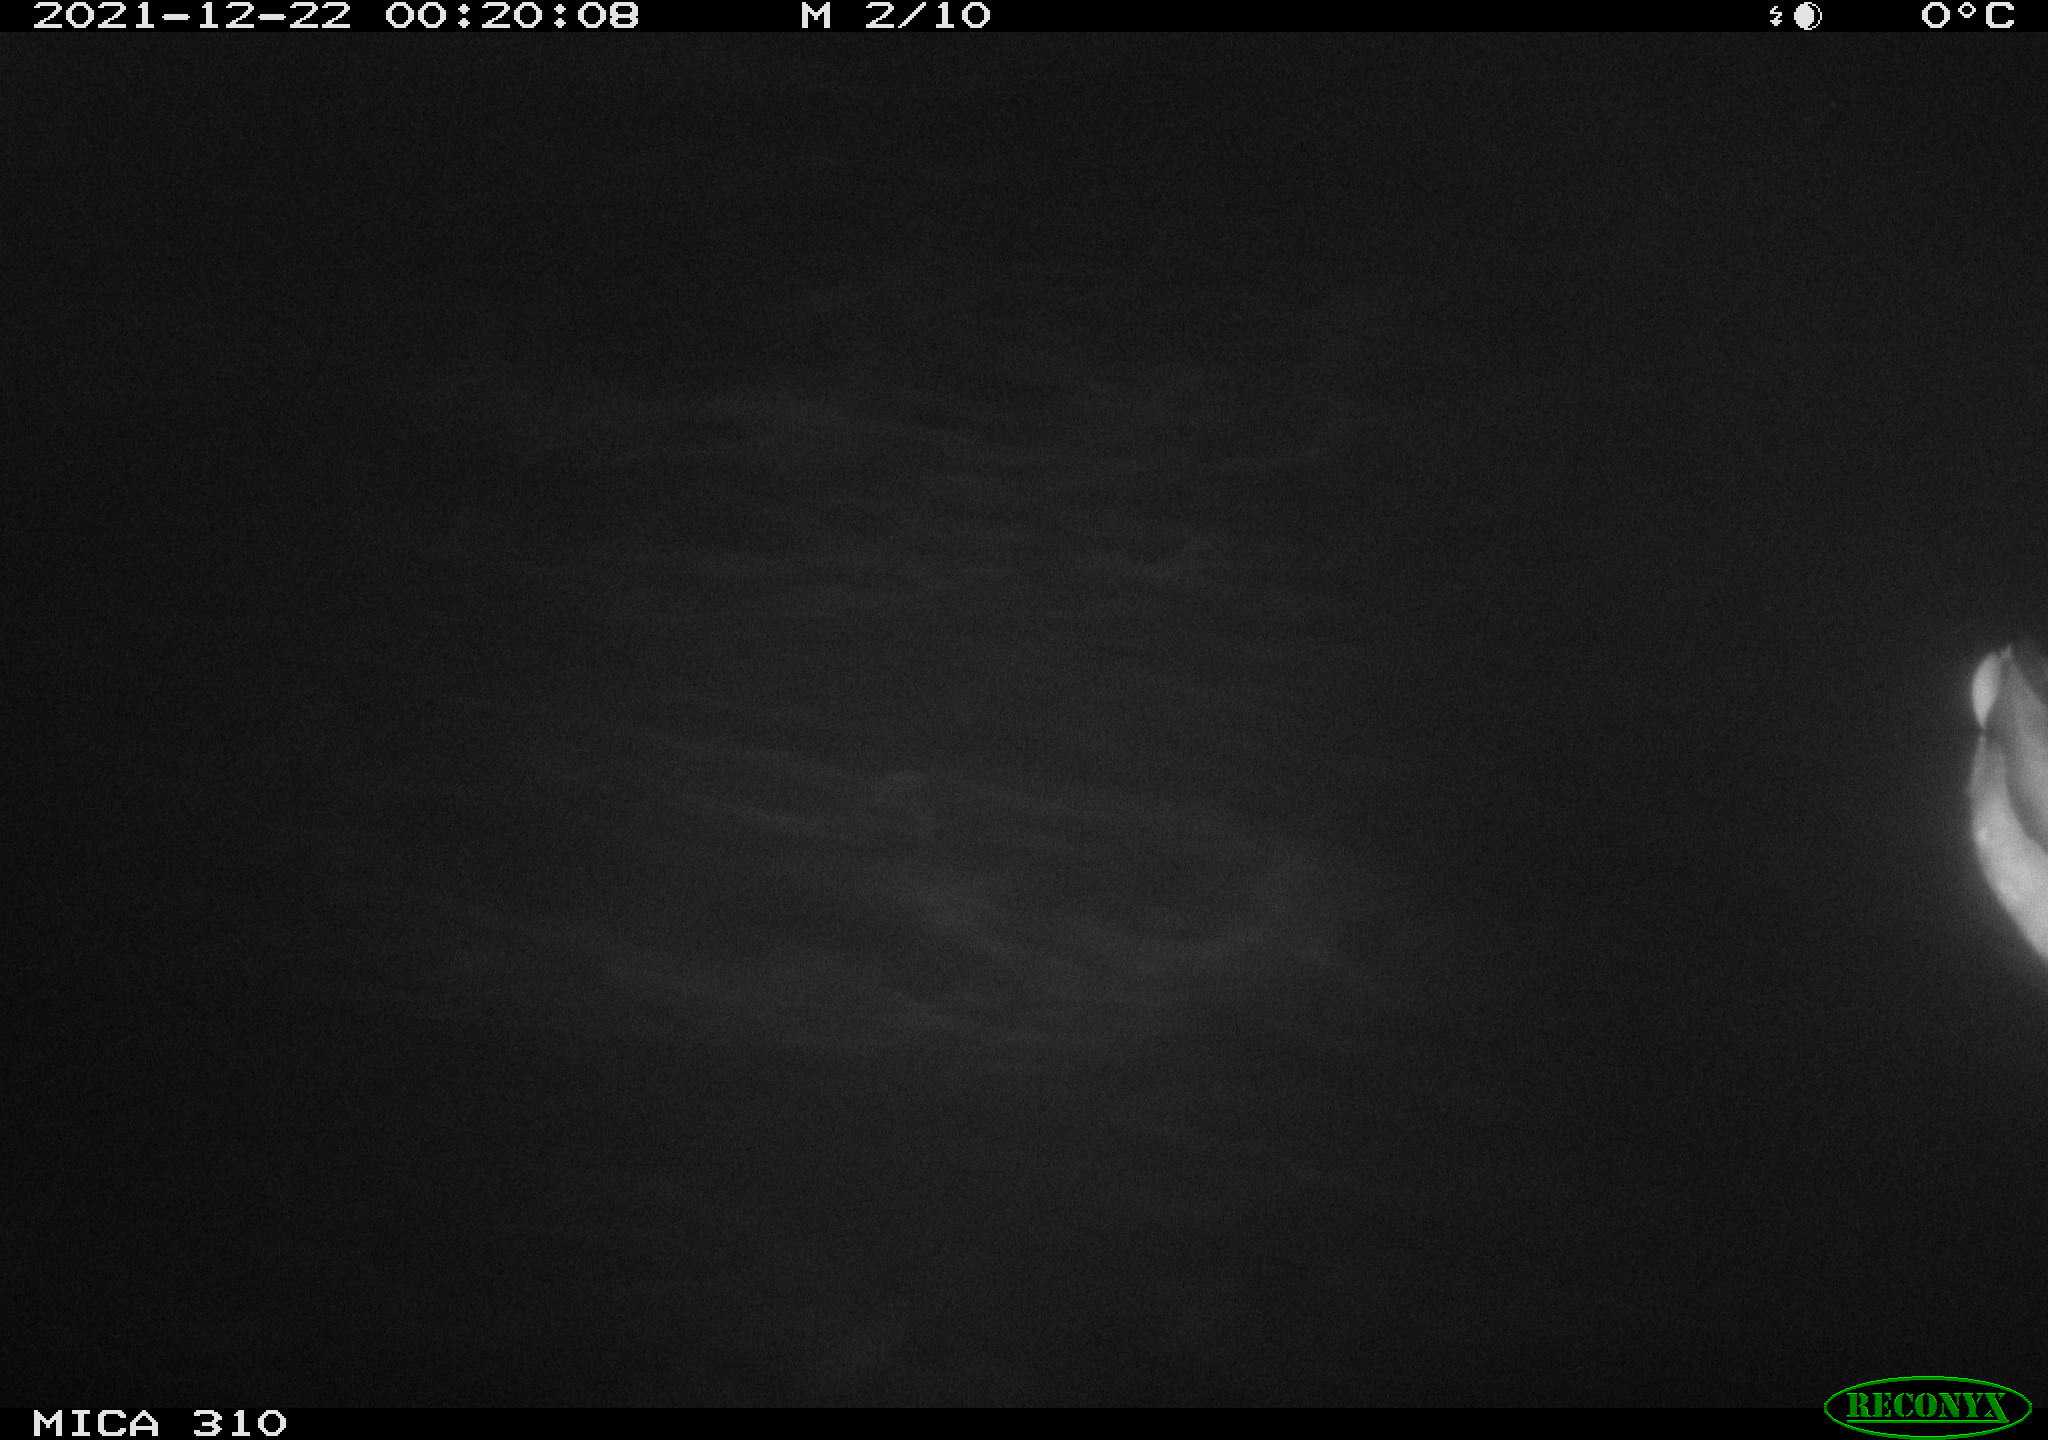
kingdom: Animalia
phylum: Chordata
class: Aves
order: Anseriformes
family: Anatidae
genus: Anas
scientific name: Anas platyrhynchos
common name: Mallard
